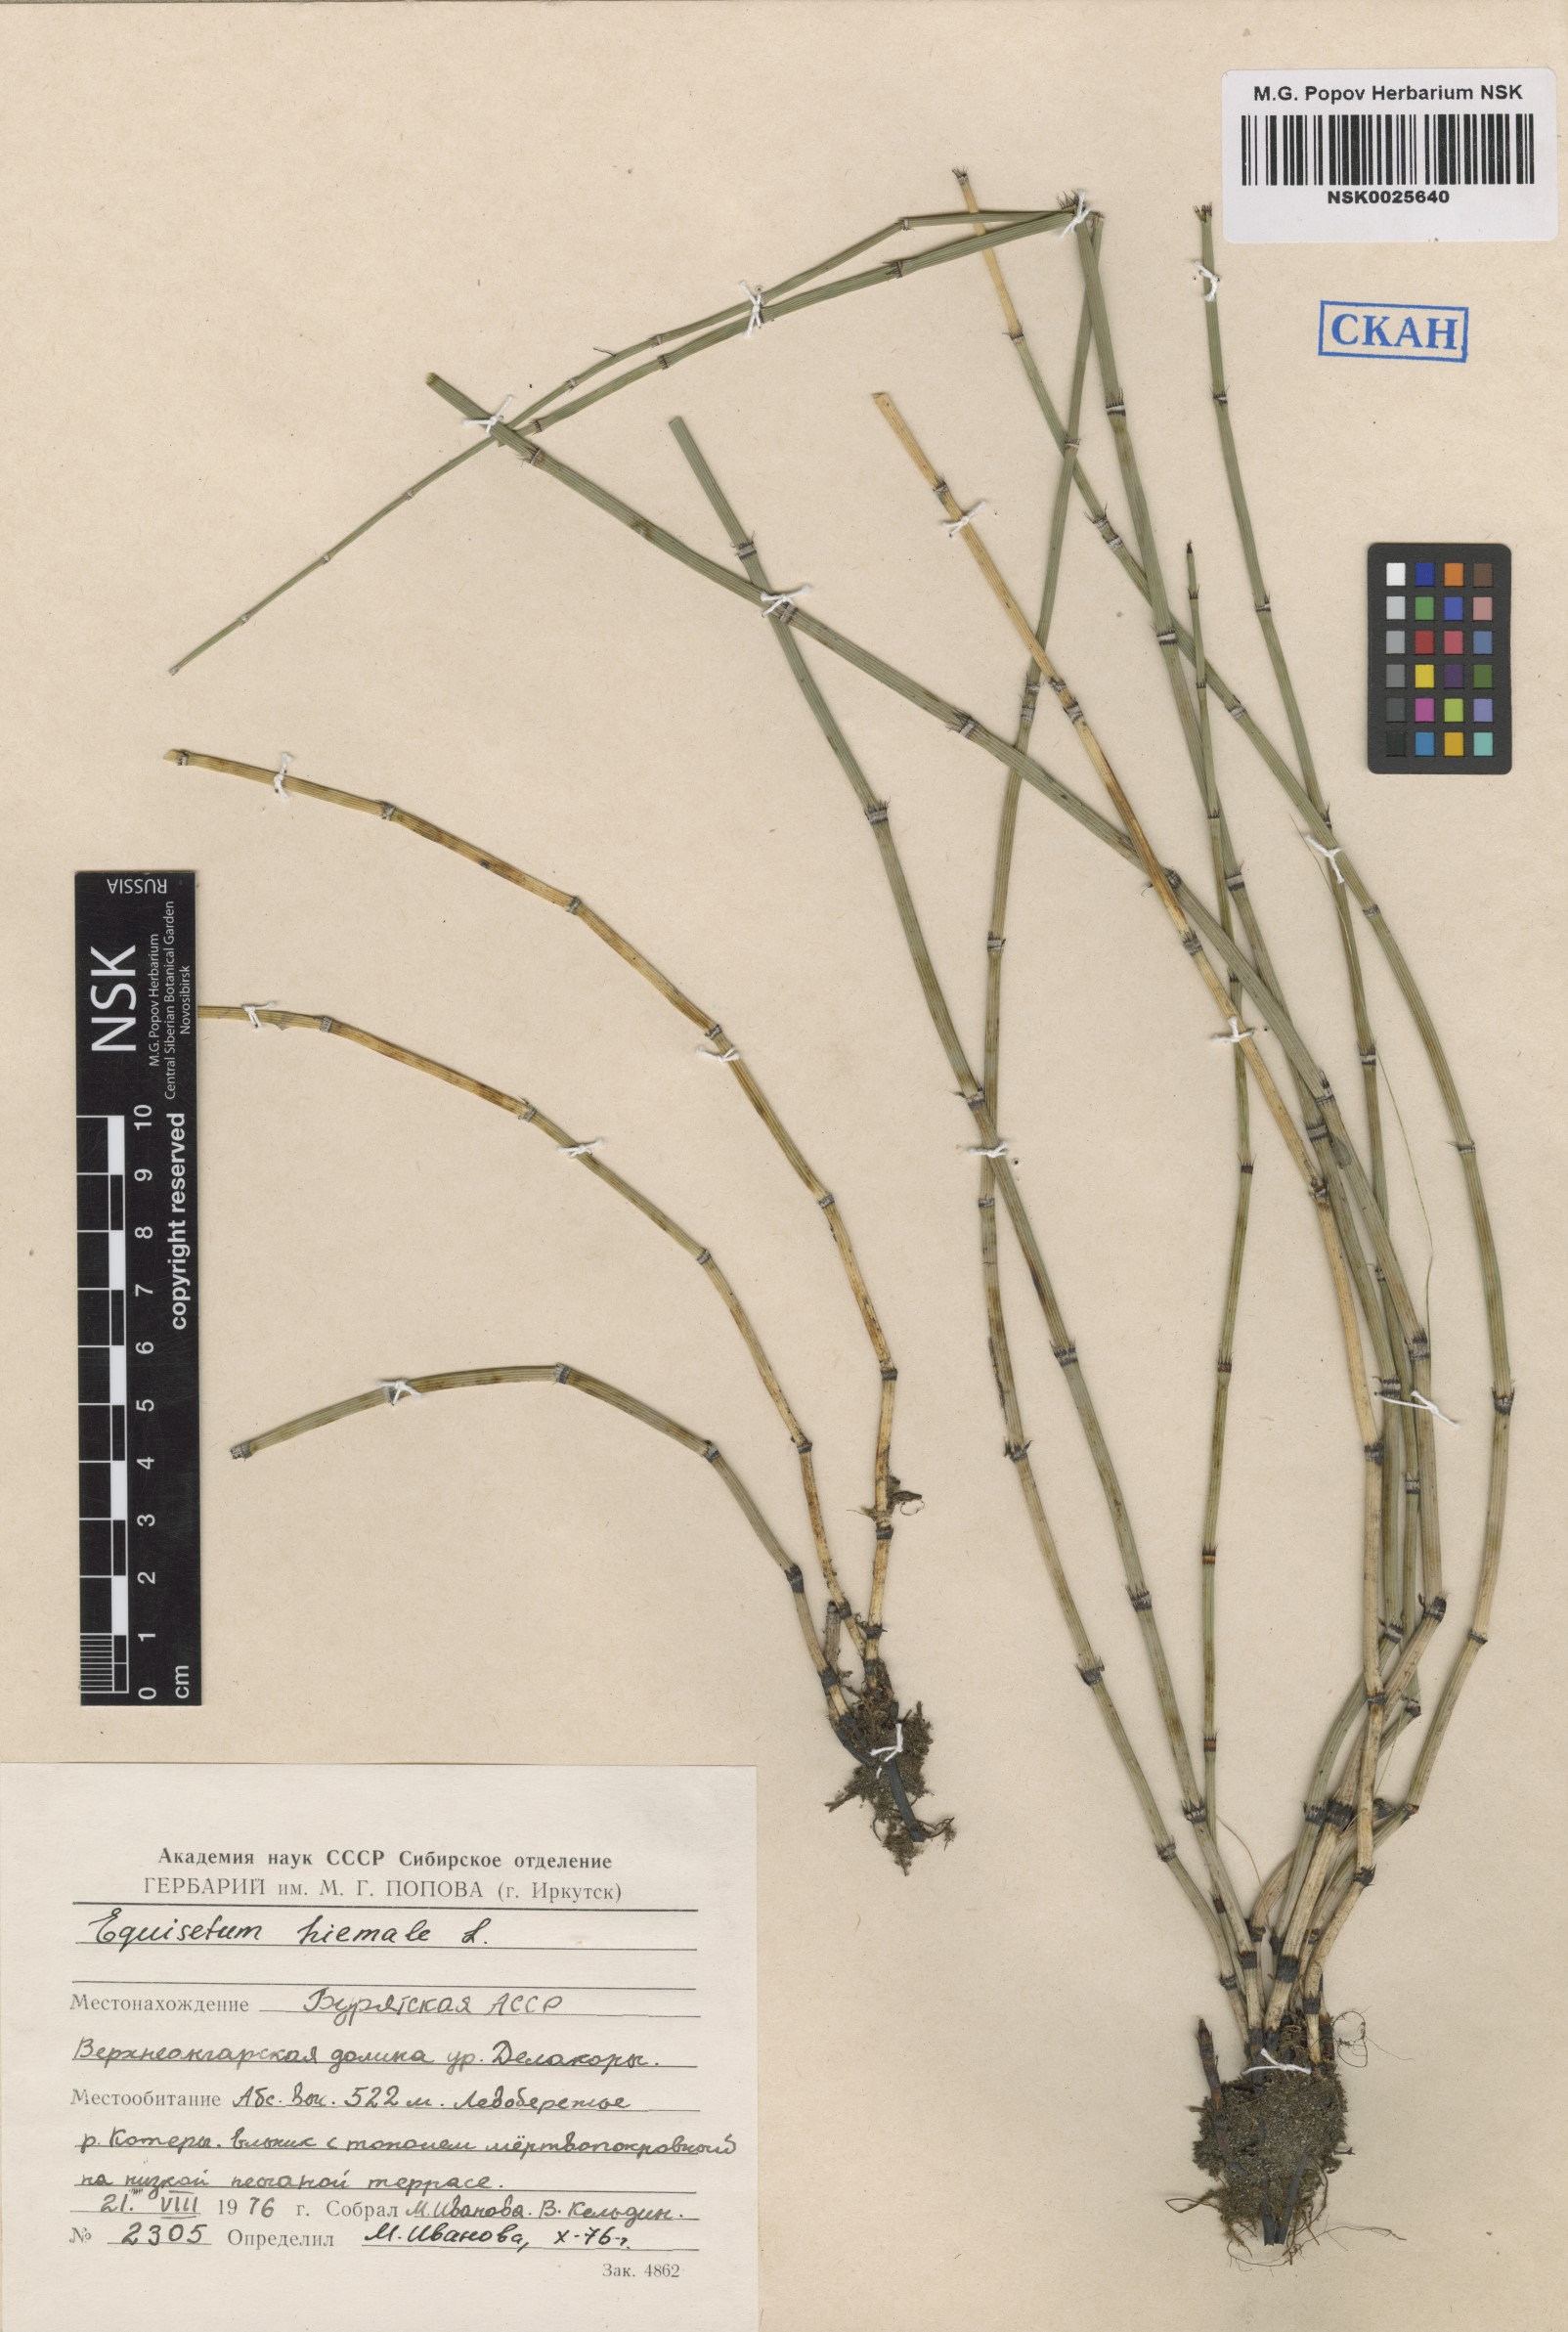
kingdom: Plantae
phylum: Tracheophyta
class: Polypodiopsida
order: Equisetales
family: Equisetaceae
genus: Equisetum
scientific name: Equisetum hyemale
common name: Rough horsetail
